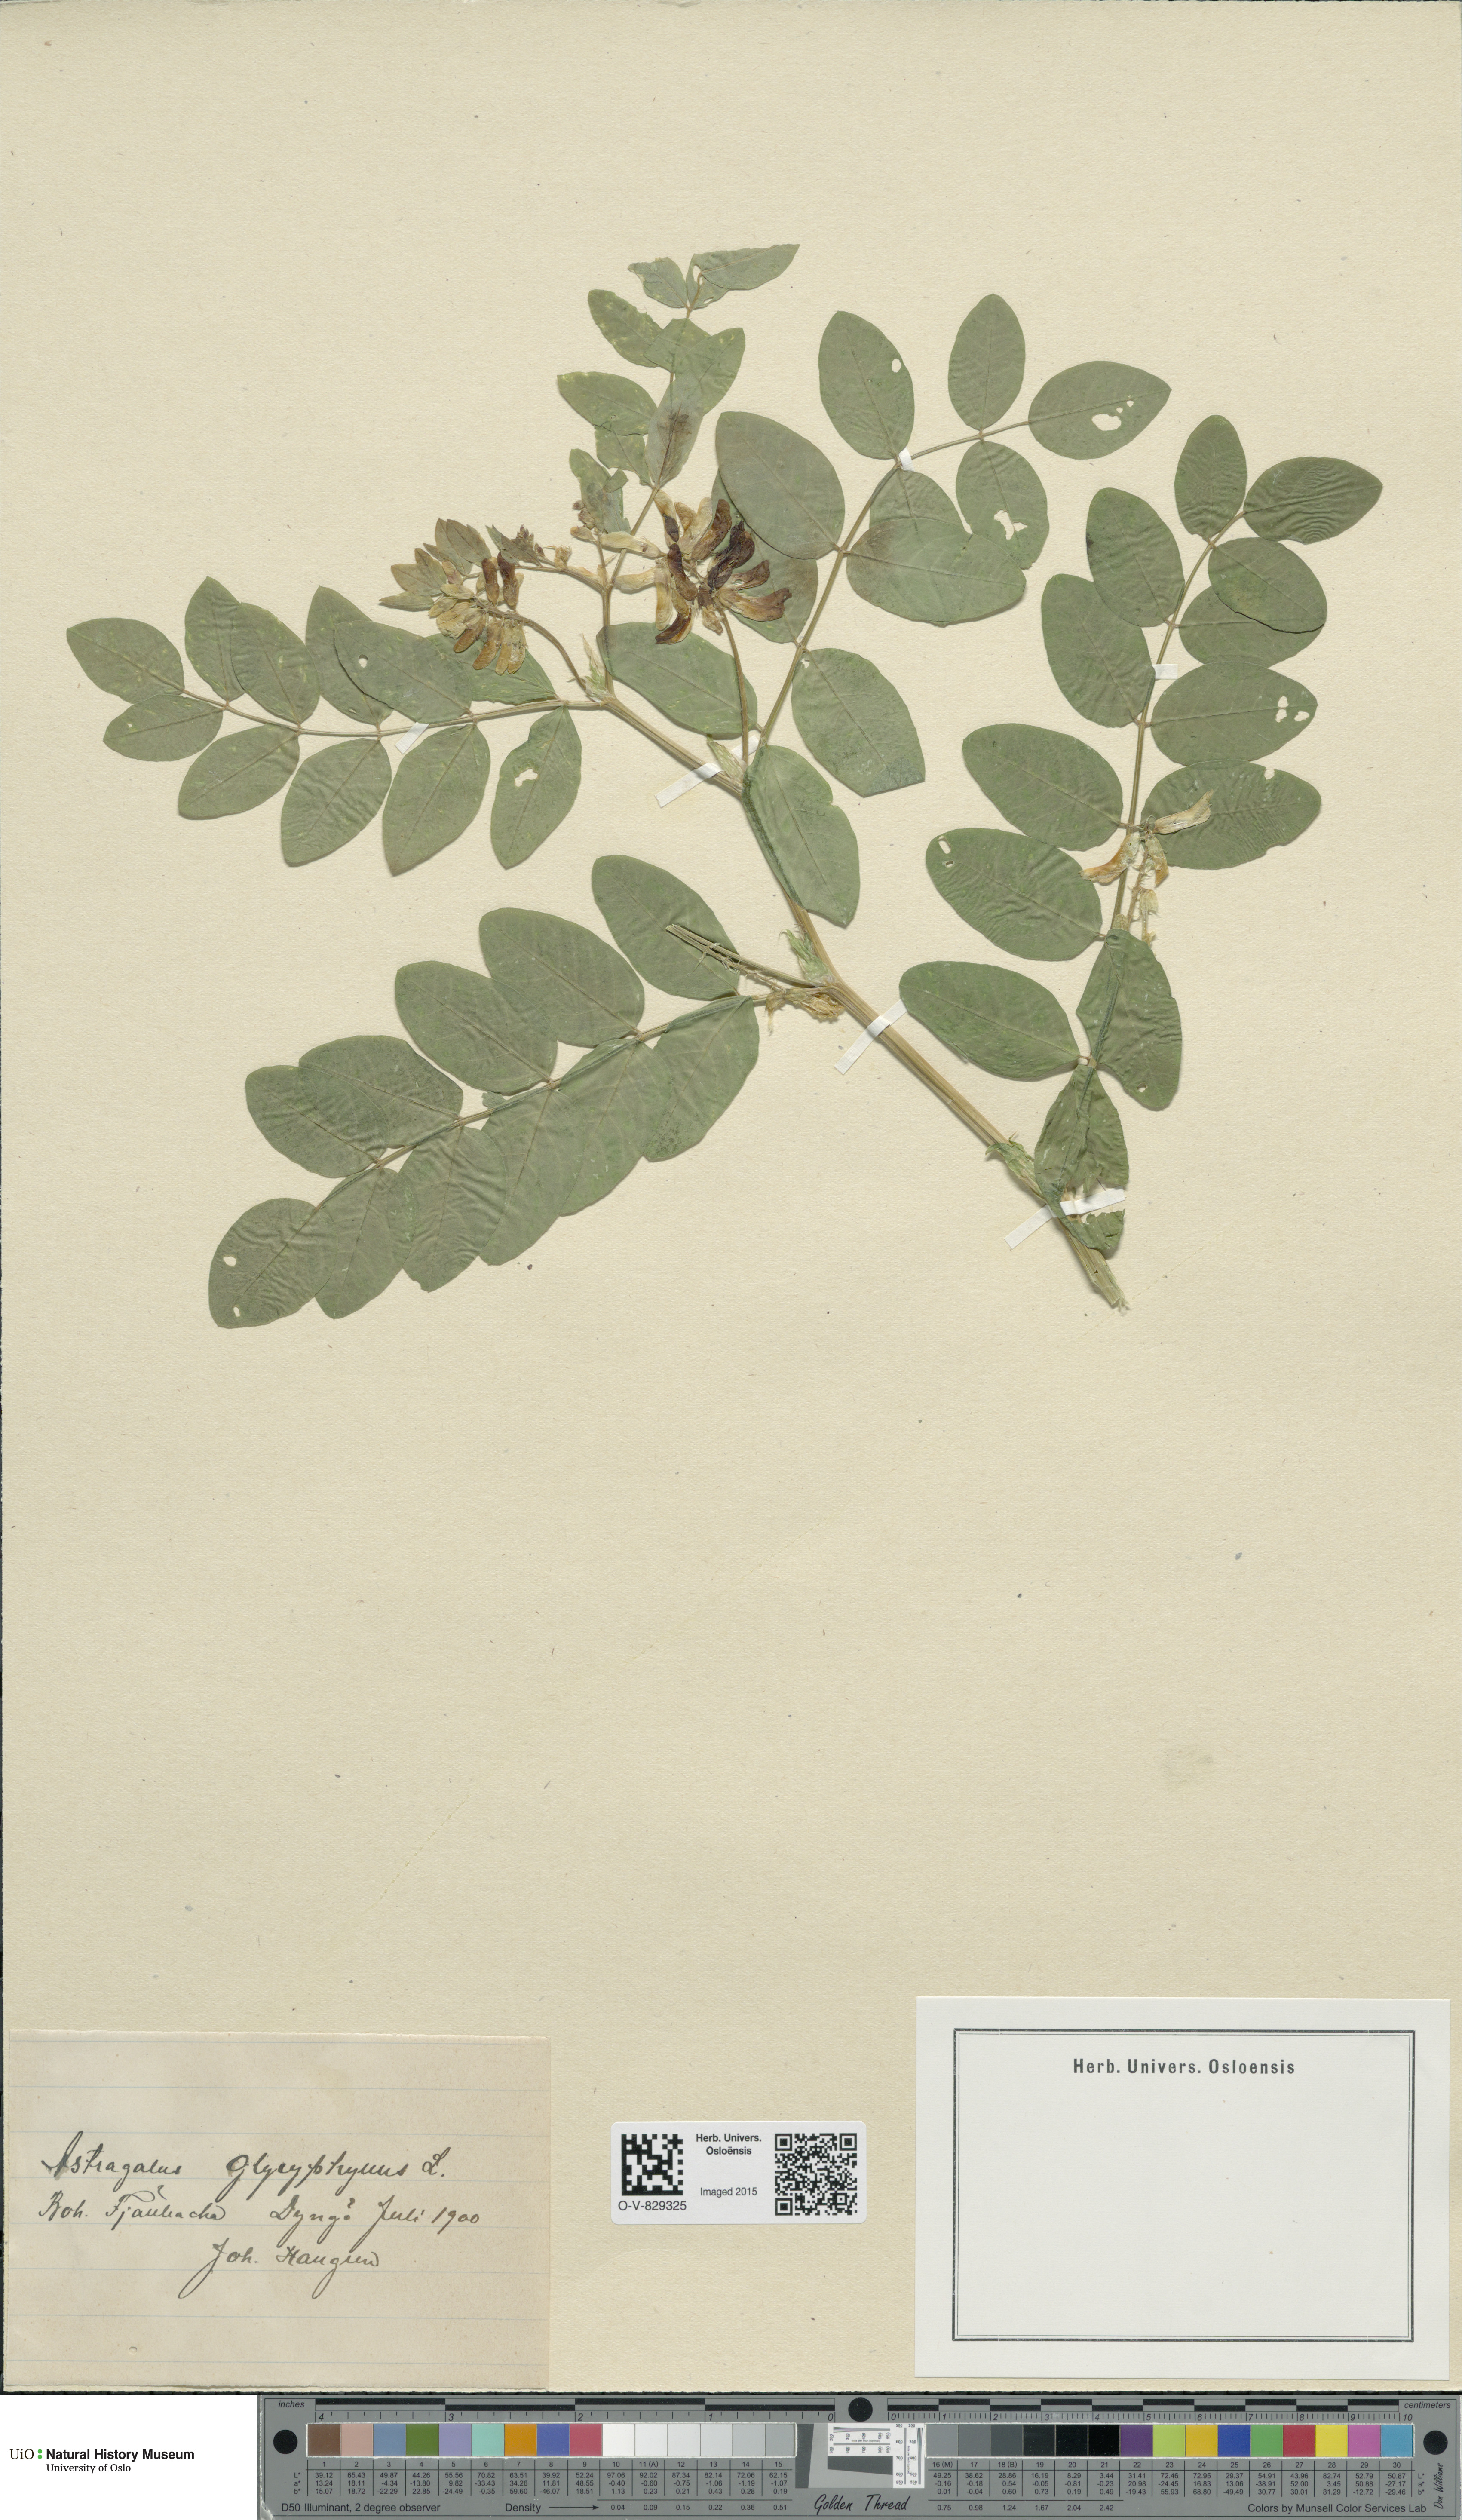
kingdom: Plantae
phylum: Tracheophyta
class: Magnoliopsida
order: Fabales
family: Fabaceae
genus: Astragalus
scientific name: Astragalus glycyphyllos
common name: Wild liquorice
